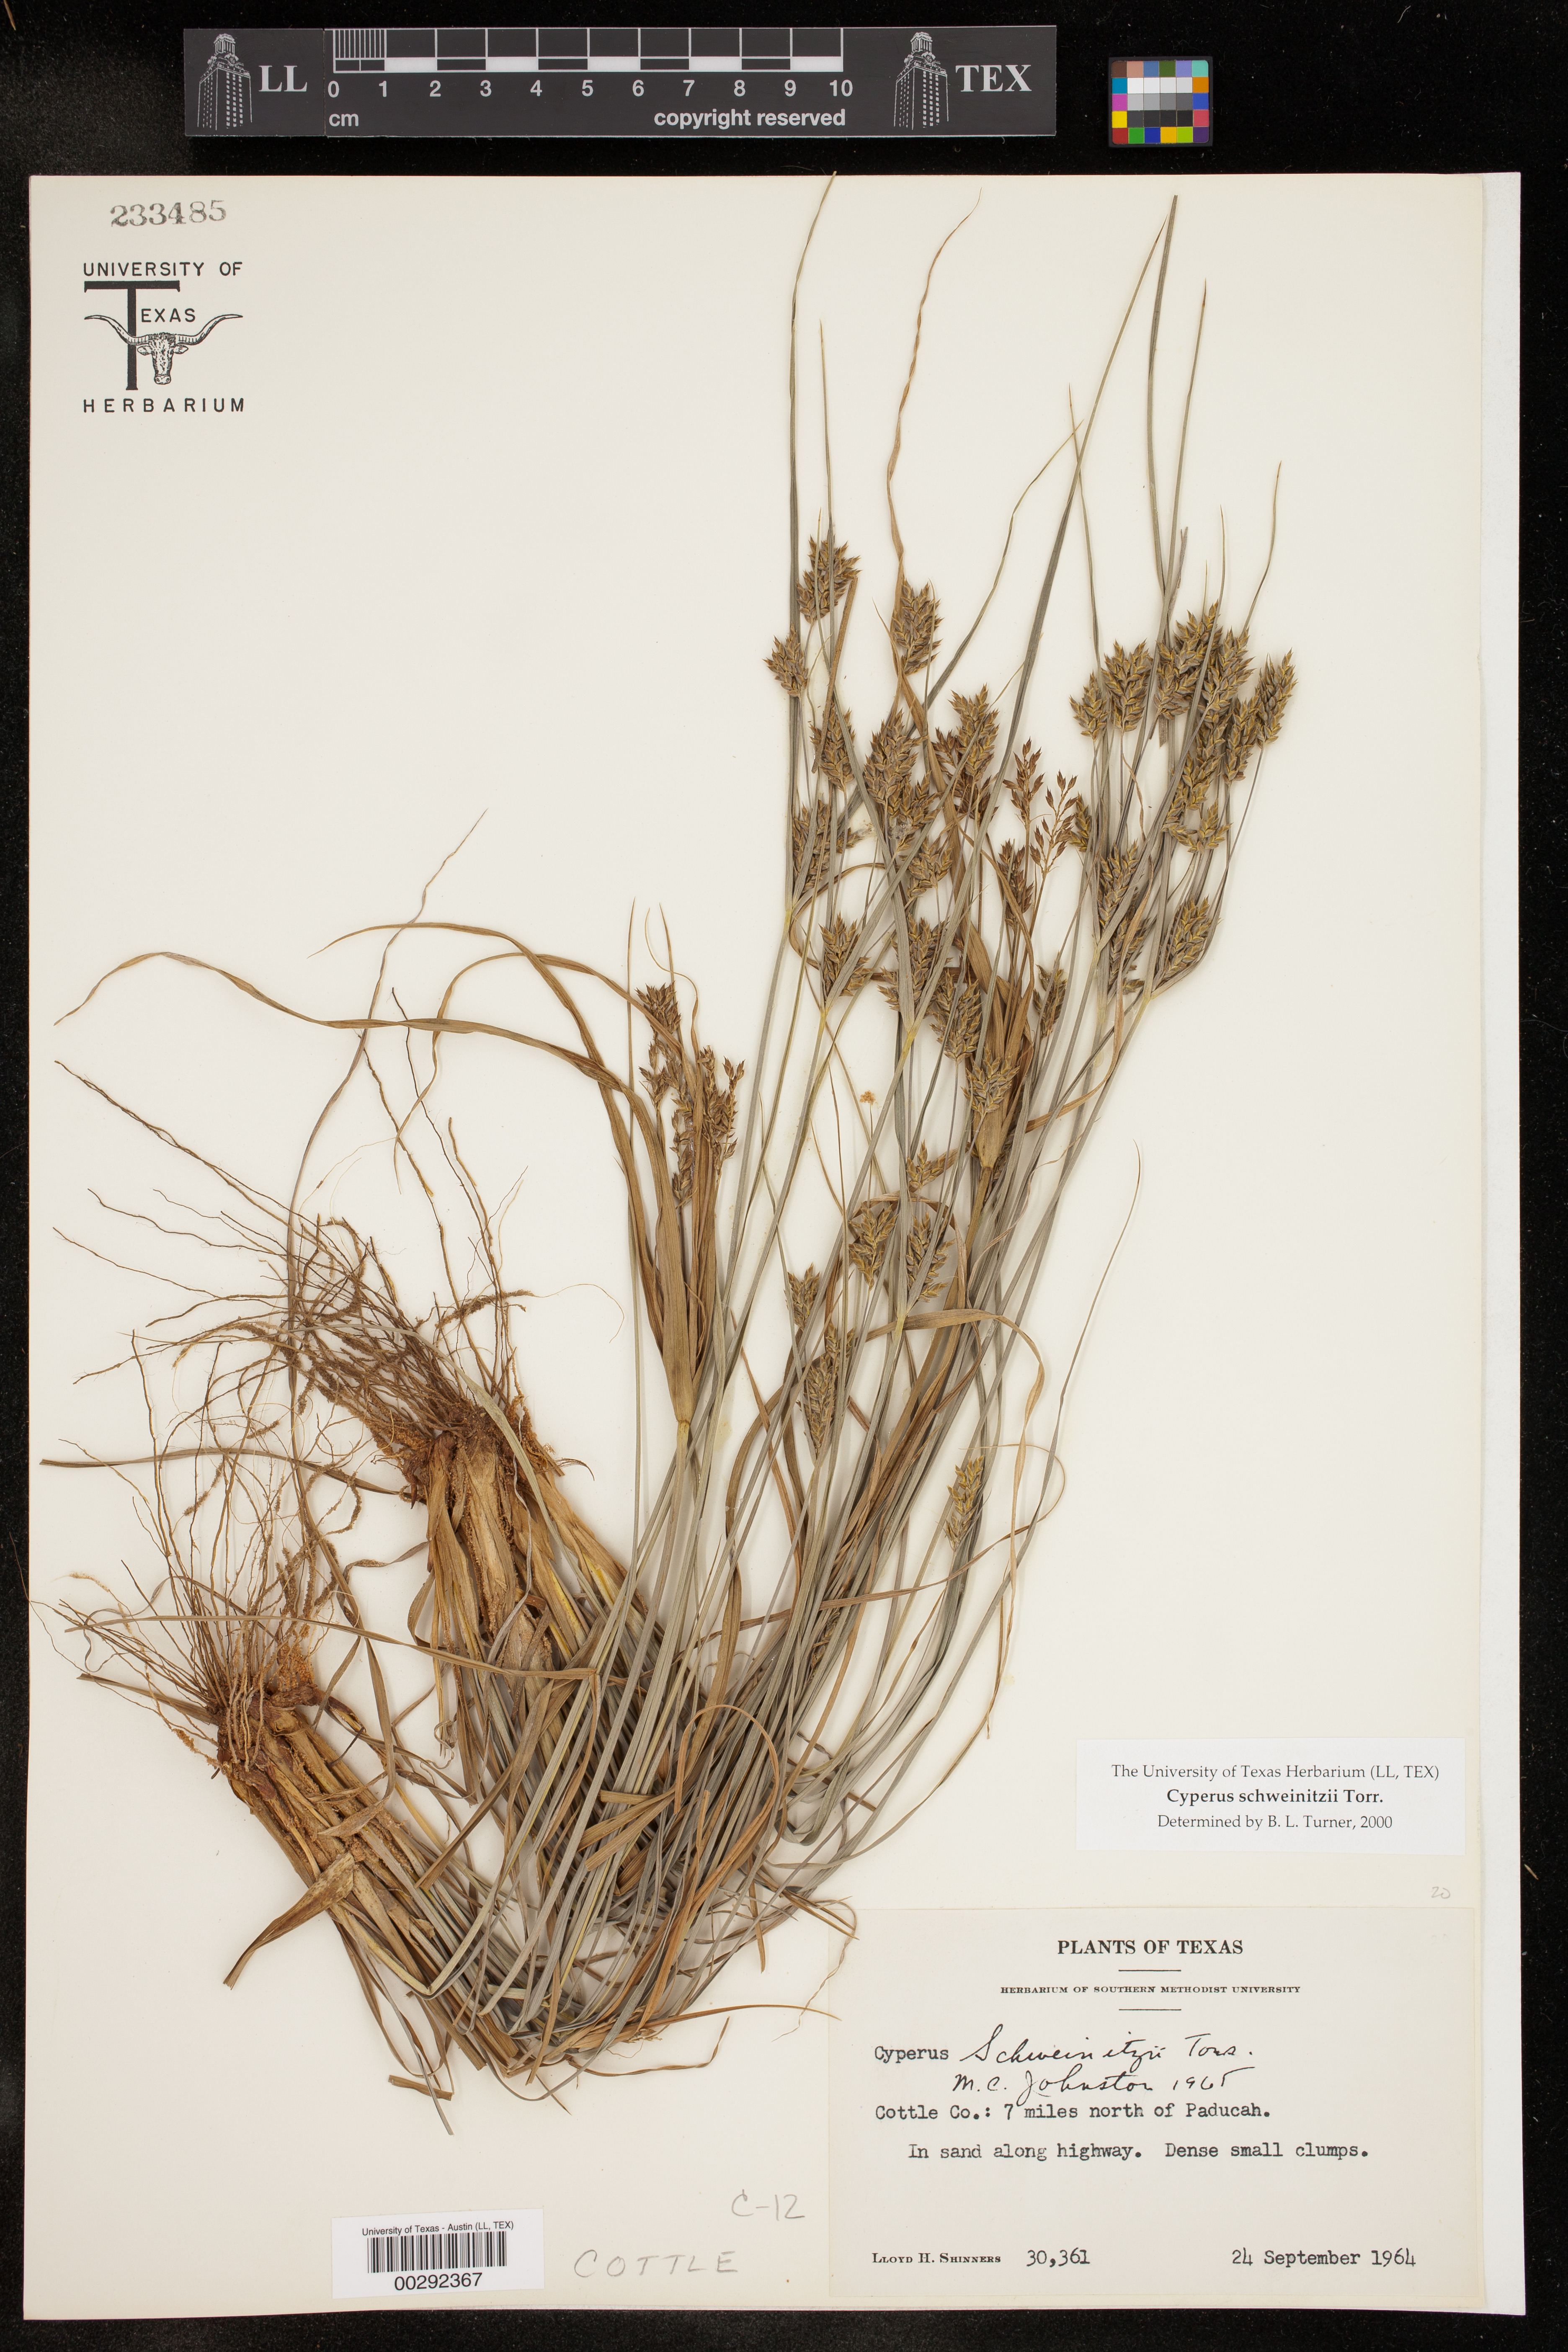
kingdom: Plantae
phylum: Tracheophyta
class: Liliopsida
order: Poales
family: Cyperaceae
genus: Cyperus
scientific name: Cyperus schweinitzii
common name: Schweinitz's cyperus
